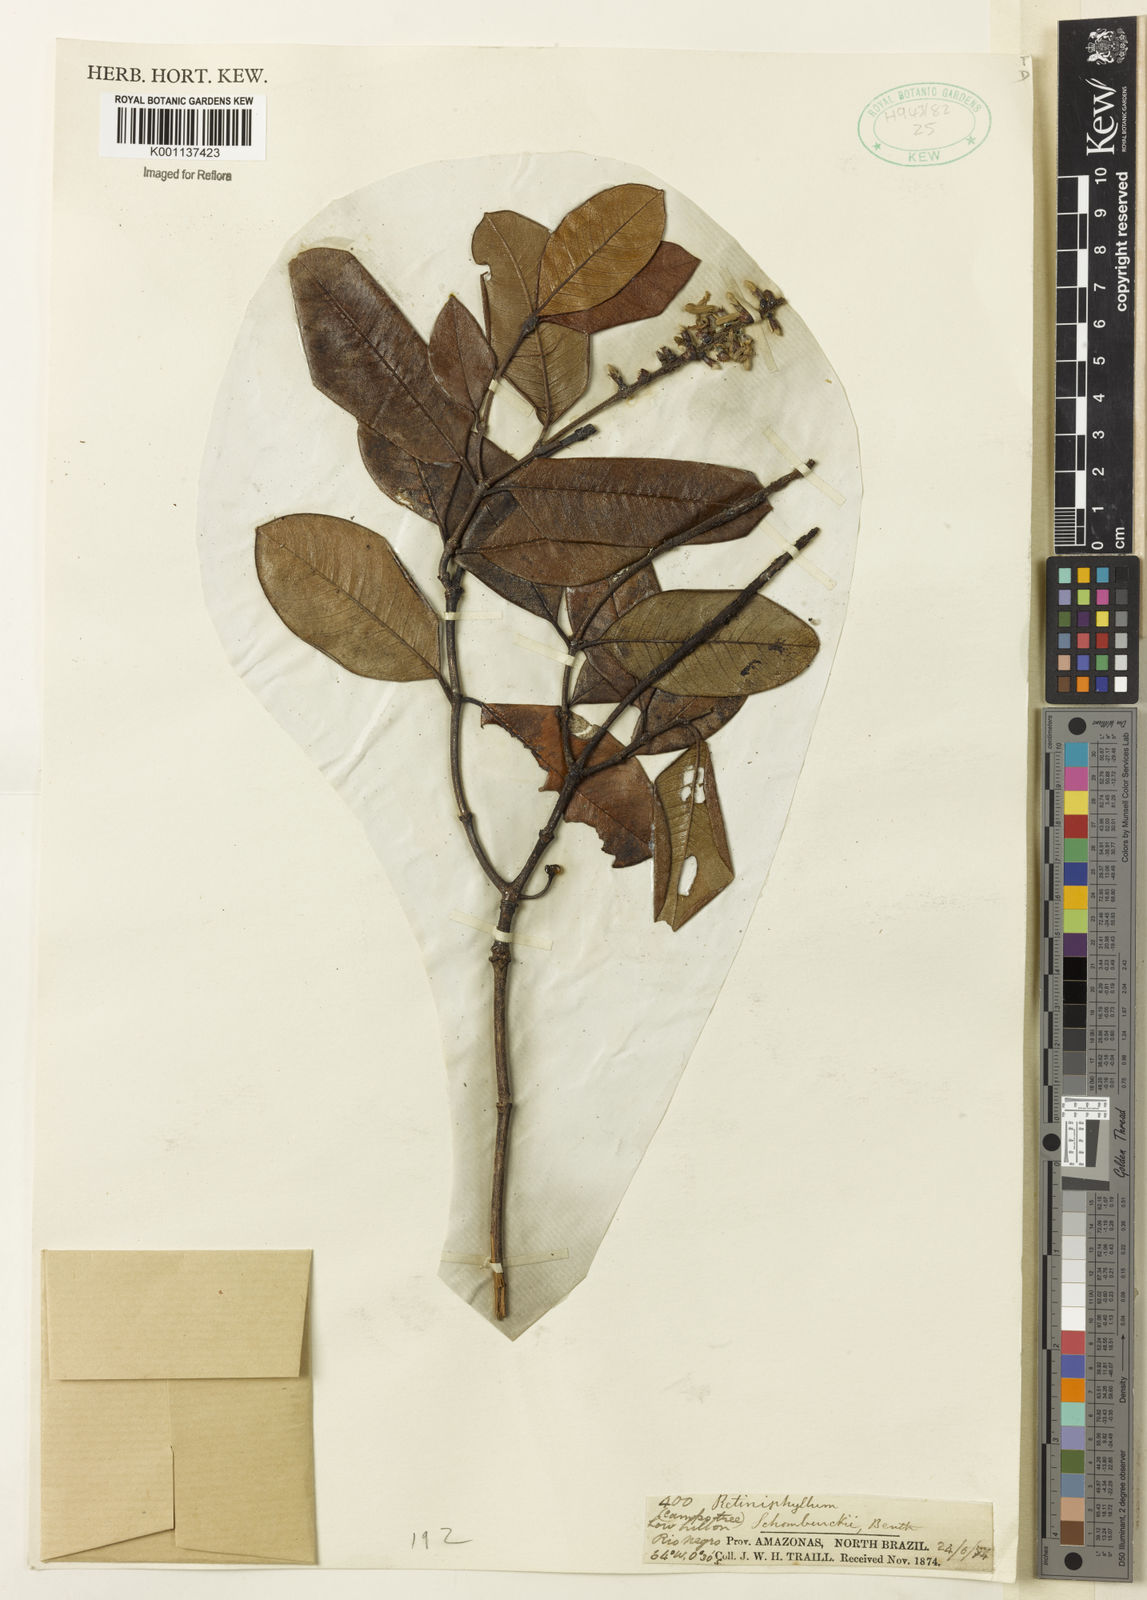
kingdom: Plantae
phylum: Tracheophyta
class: Magnoliopsida
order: Gentianales
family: Rubiaceae
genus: Retiniphyllum
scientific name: Retiniphyllum
